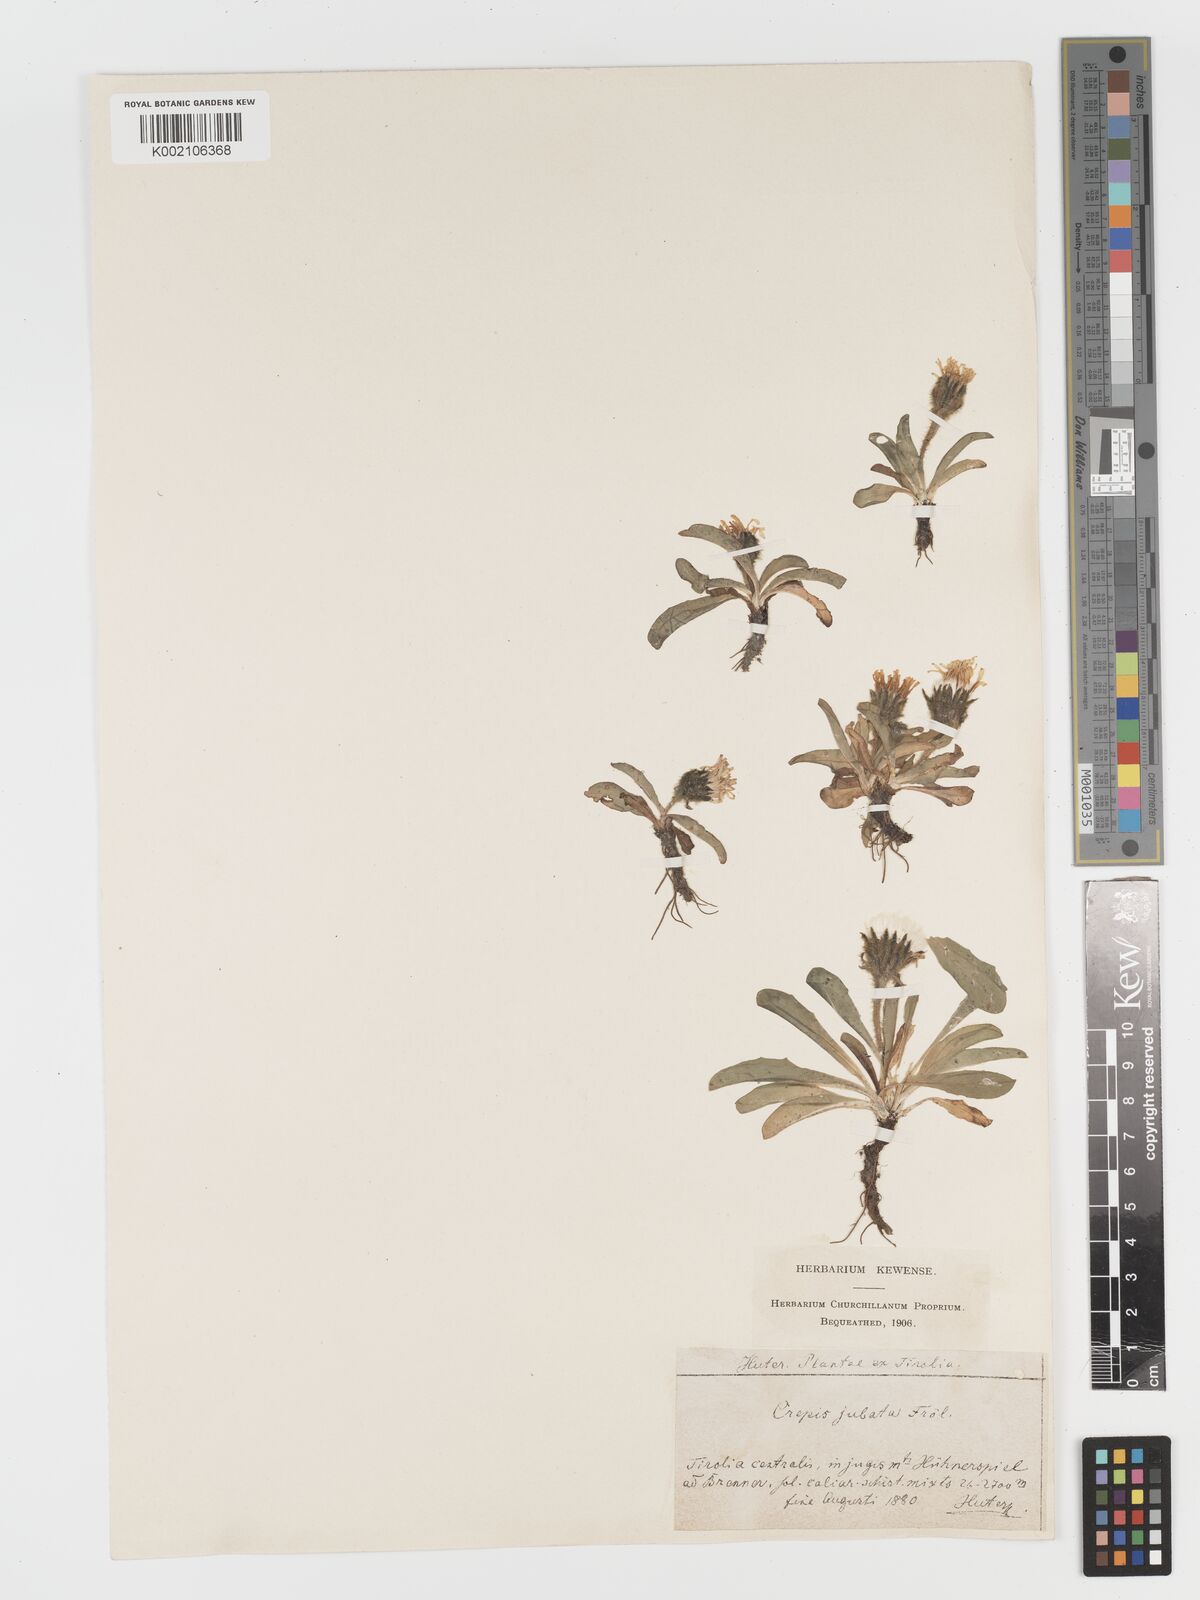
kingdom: Plantae
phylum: Tracheophyta
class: Magnoliopsida
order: Asterales
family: Asteraceae
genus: Crepis
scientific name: Crepis
